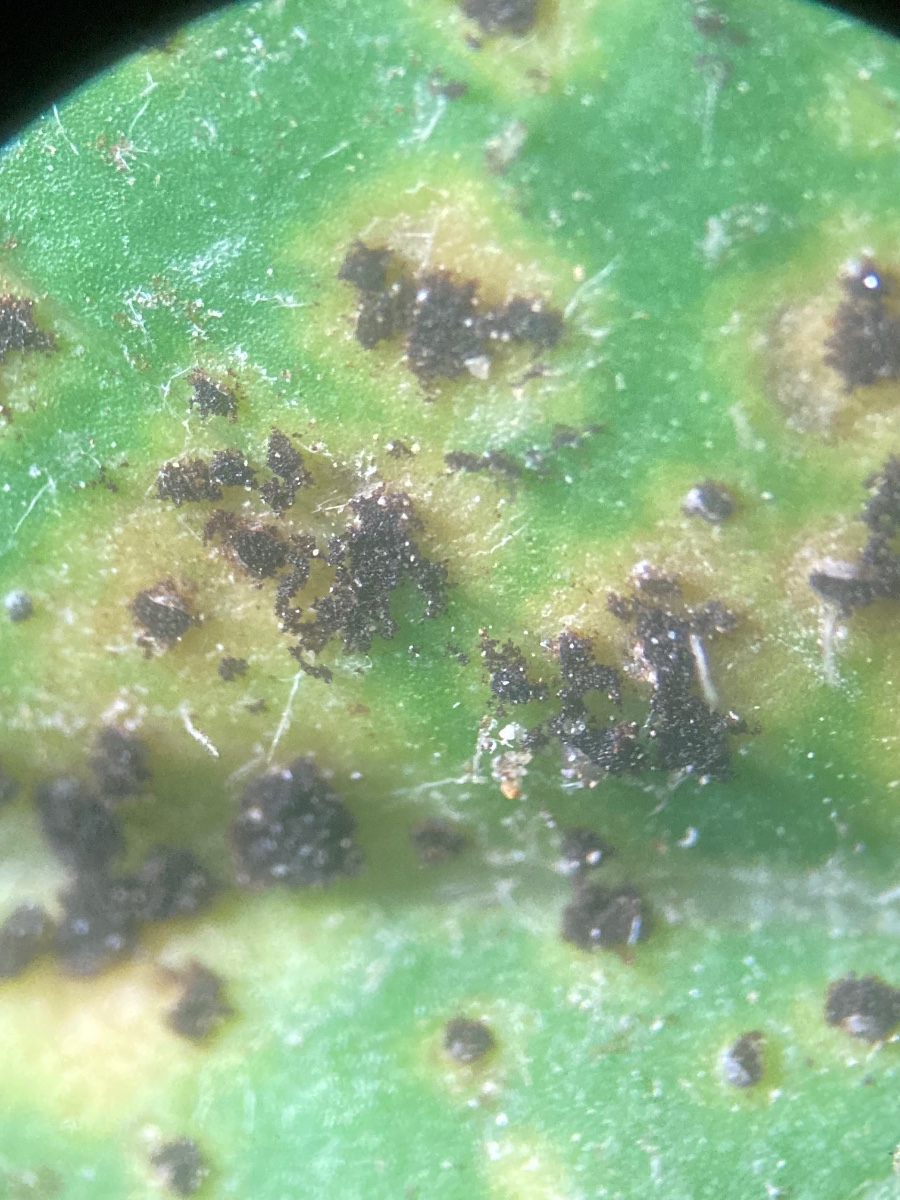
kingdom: Fungi
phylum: Basidiomycota
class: Pucciniomycetes
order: Pucciniales
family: Pucciniaceae
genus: Puccinia
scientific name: Puccinia hieracii
